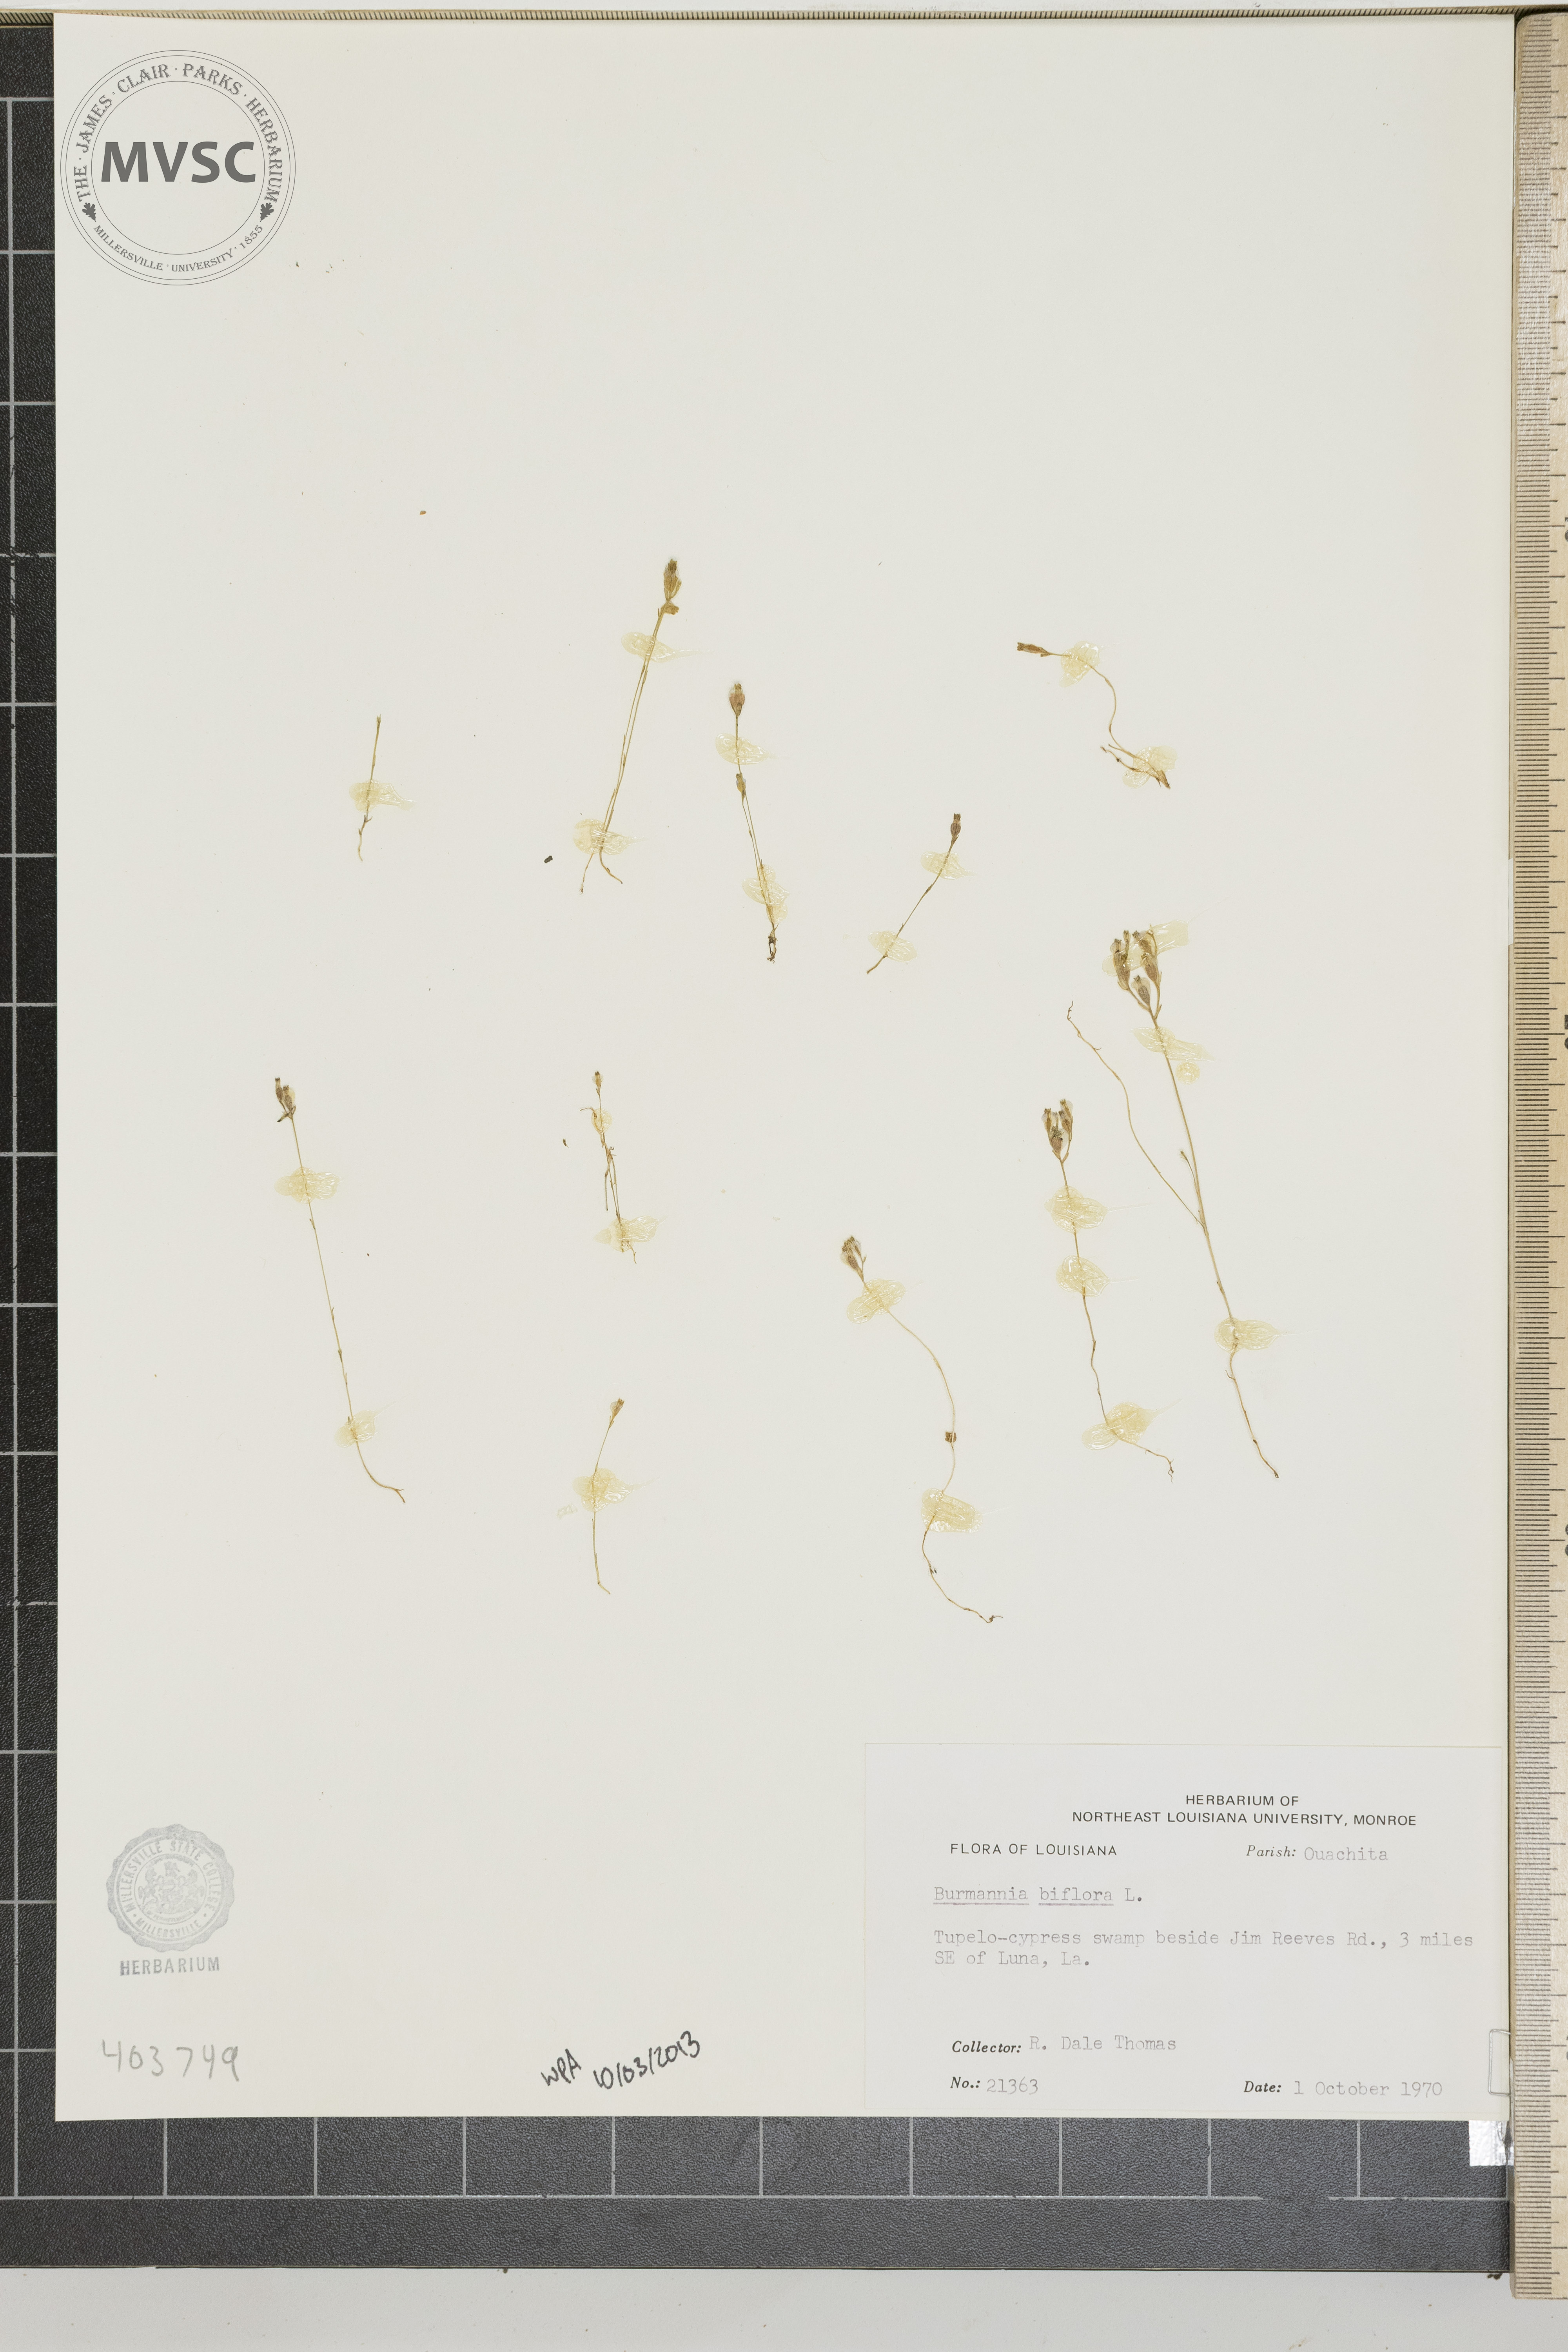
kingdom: Plantae
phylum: Tracheophyta
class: Liliopsida
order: Dioscoreales
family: Burmanniaceae
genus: Burmannia
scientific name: Burmannia biflora
